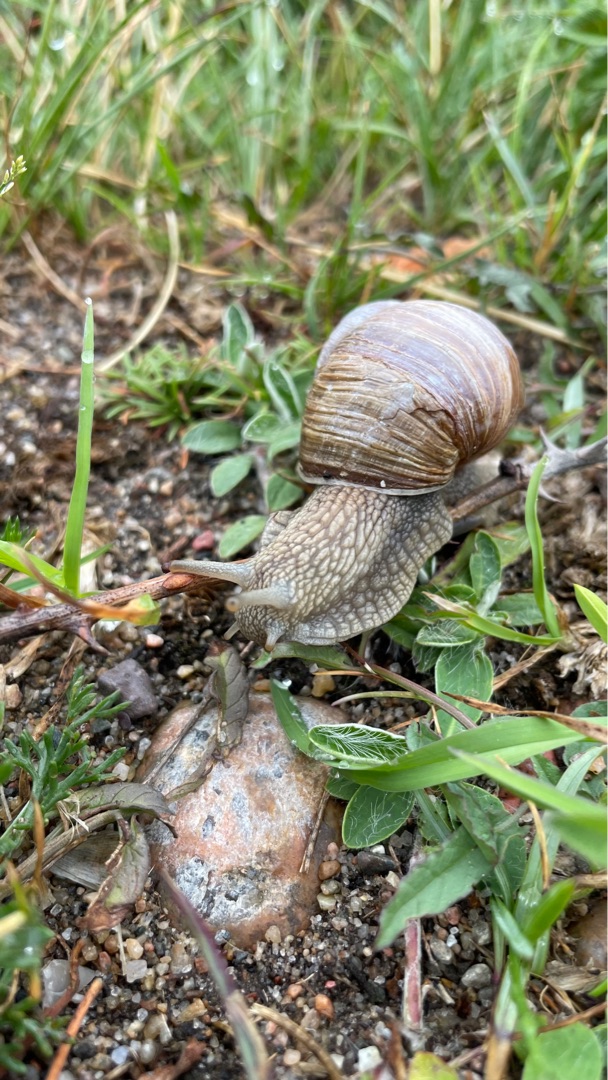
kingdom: Animalia
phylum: Mollusca
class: Gastropoda
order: Stylommatophora
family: Helicidae
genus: Helix
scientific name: Helix pomatia
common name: Vinbjergsnegl
